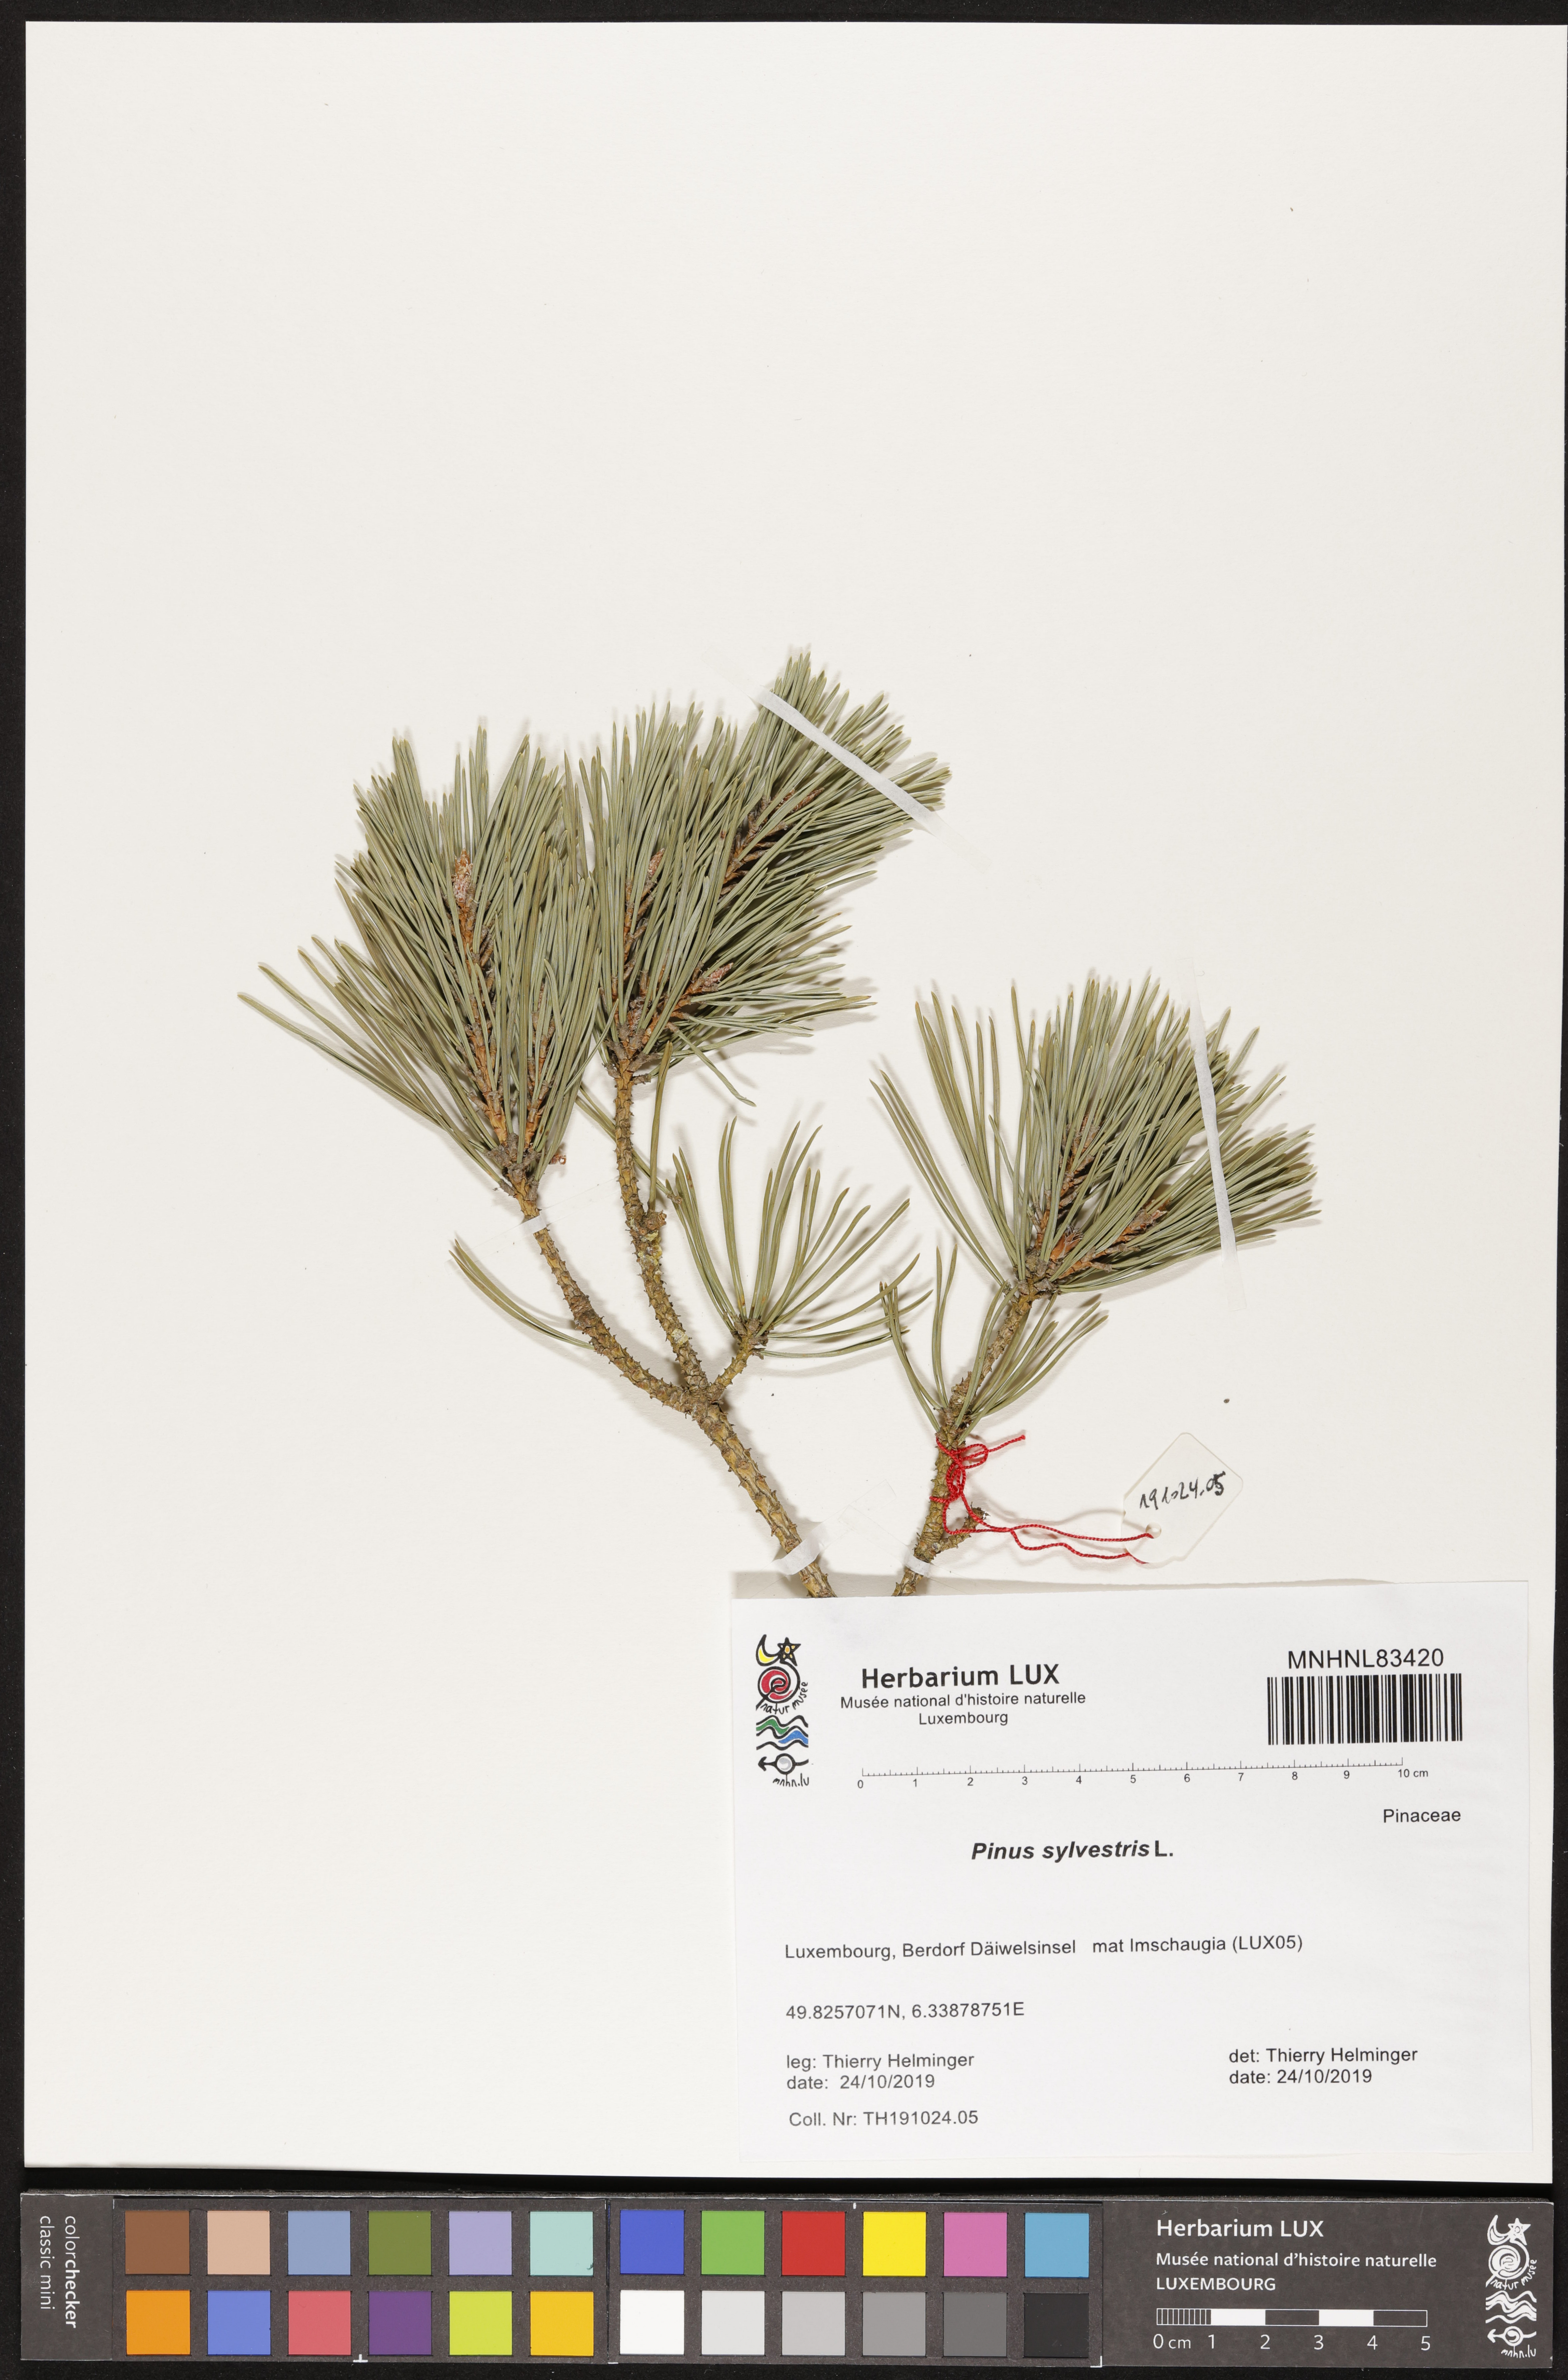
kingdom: Plantae
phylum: Tracheophyta
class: Pinopsida
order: Pinales
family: Pinaceae
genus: Pinus
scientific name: Pinus sylvestris
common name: Scots pine
